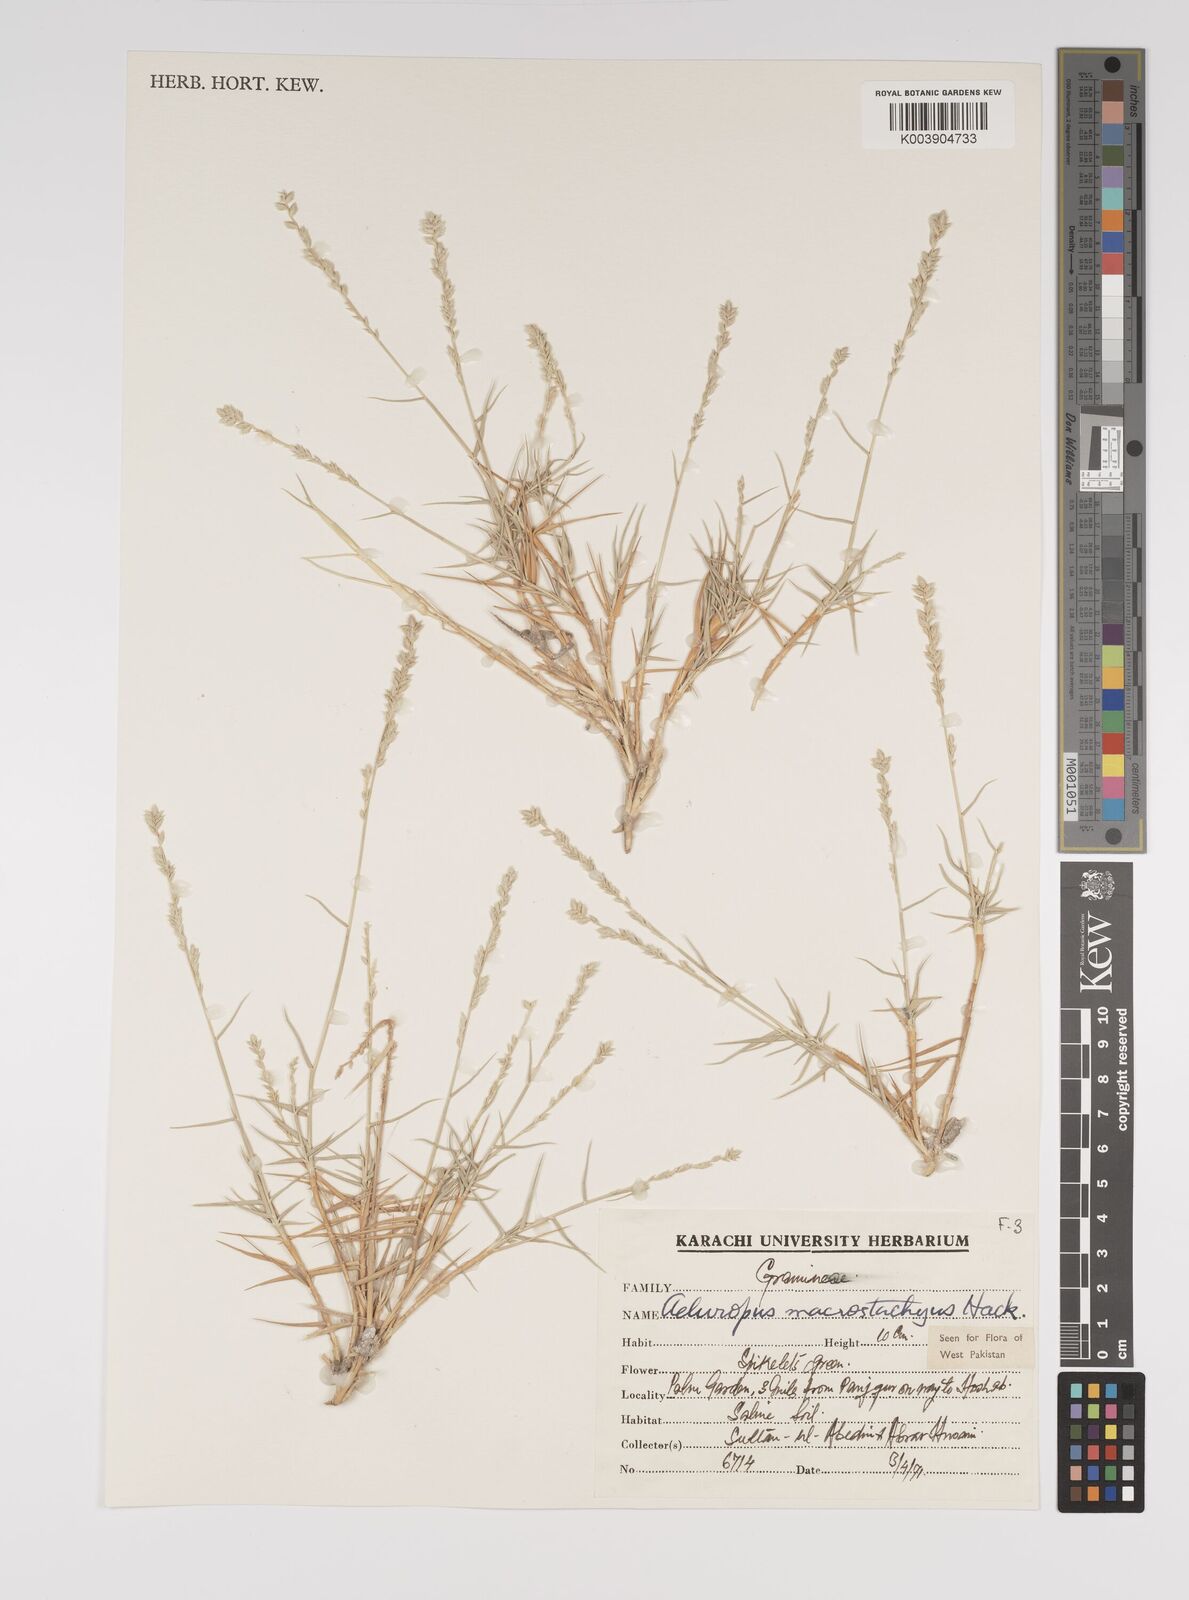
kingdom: Plantae
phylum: Tracheophyta
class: Liliopsida
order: Poales
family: Poaceae
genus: Aeluropus
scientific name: Aeluropus macrostachyus
